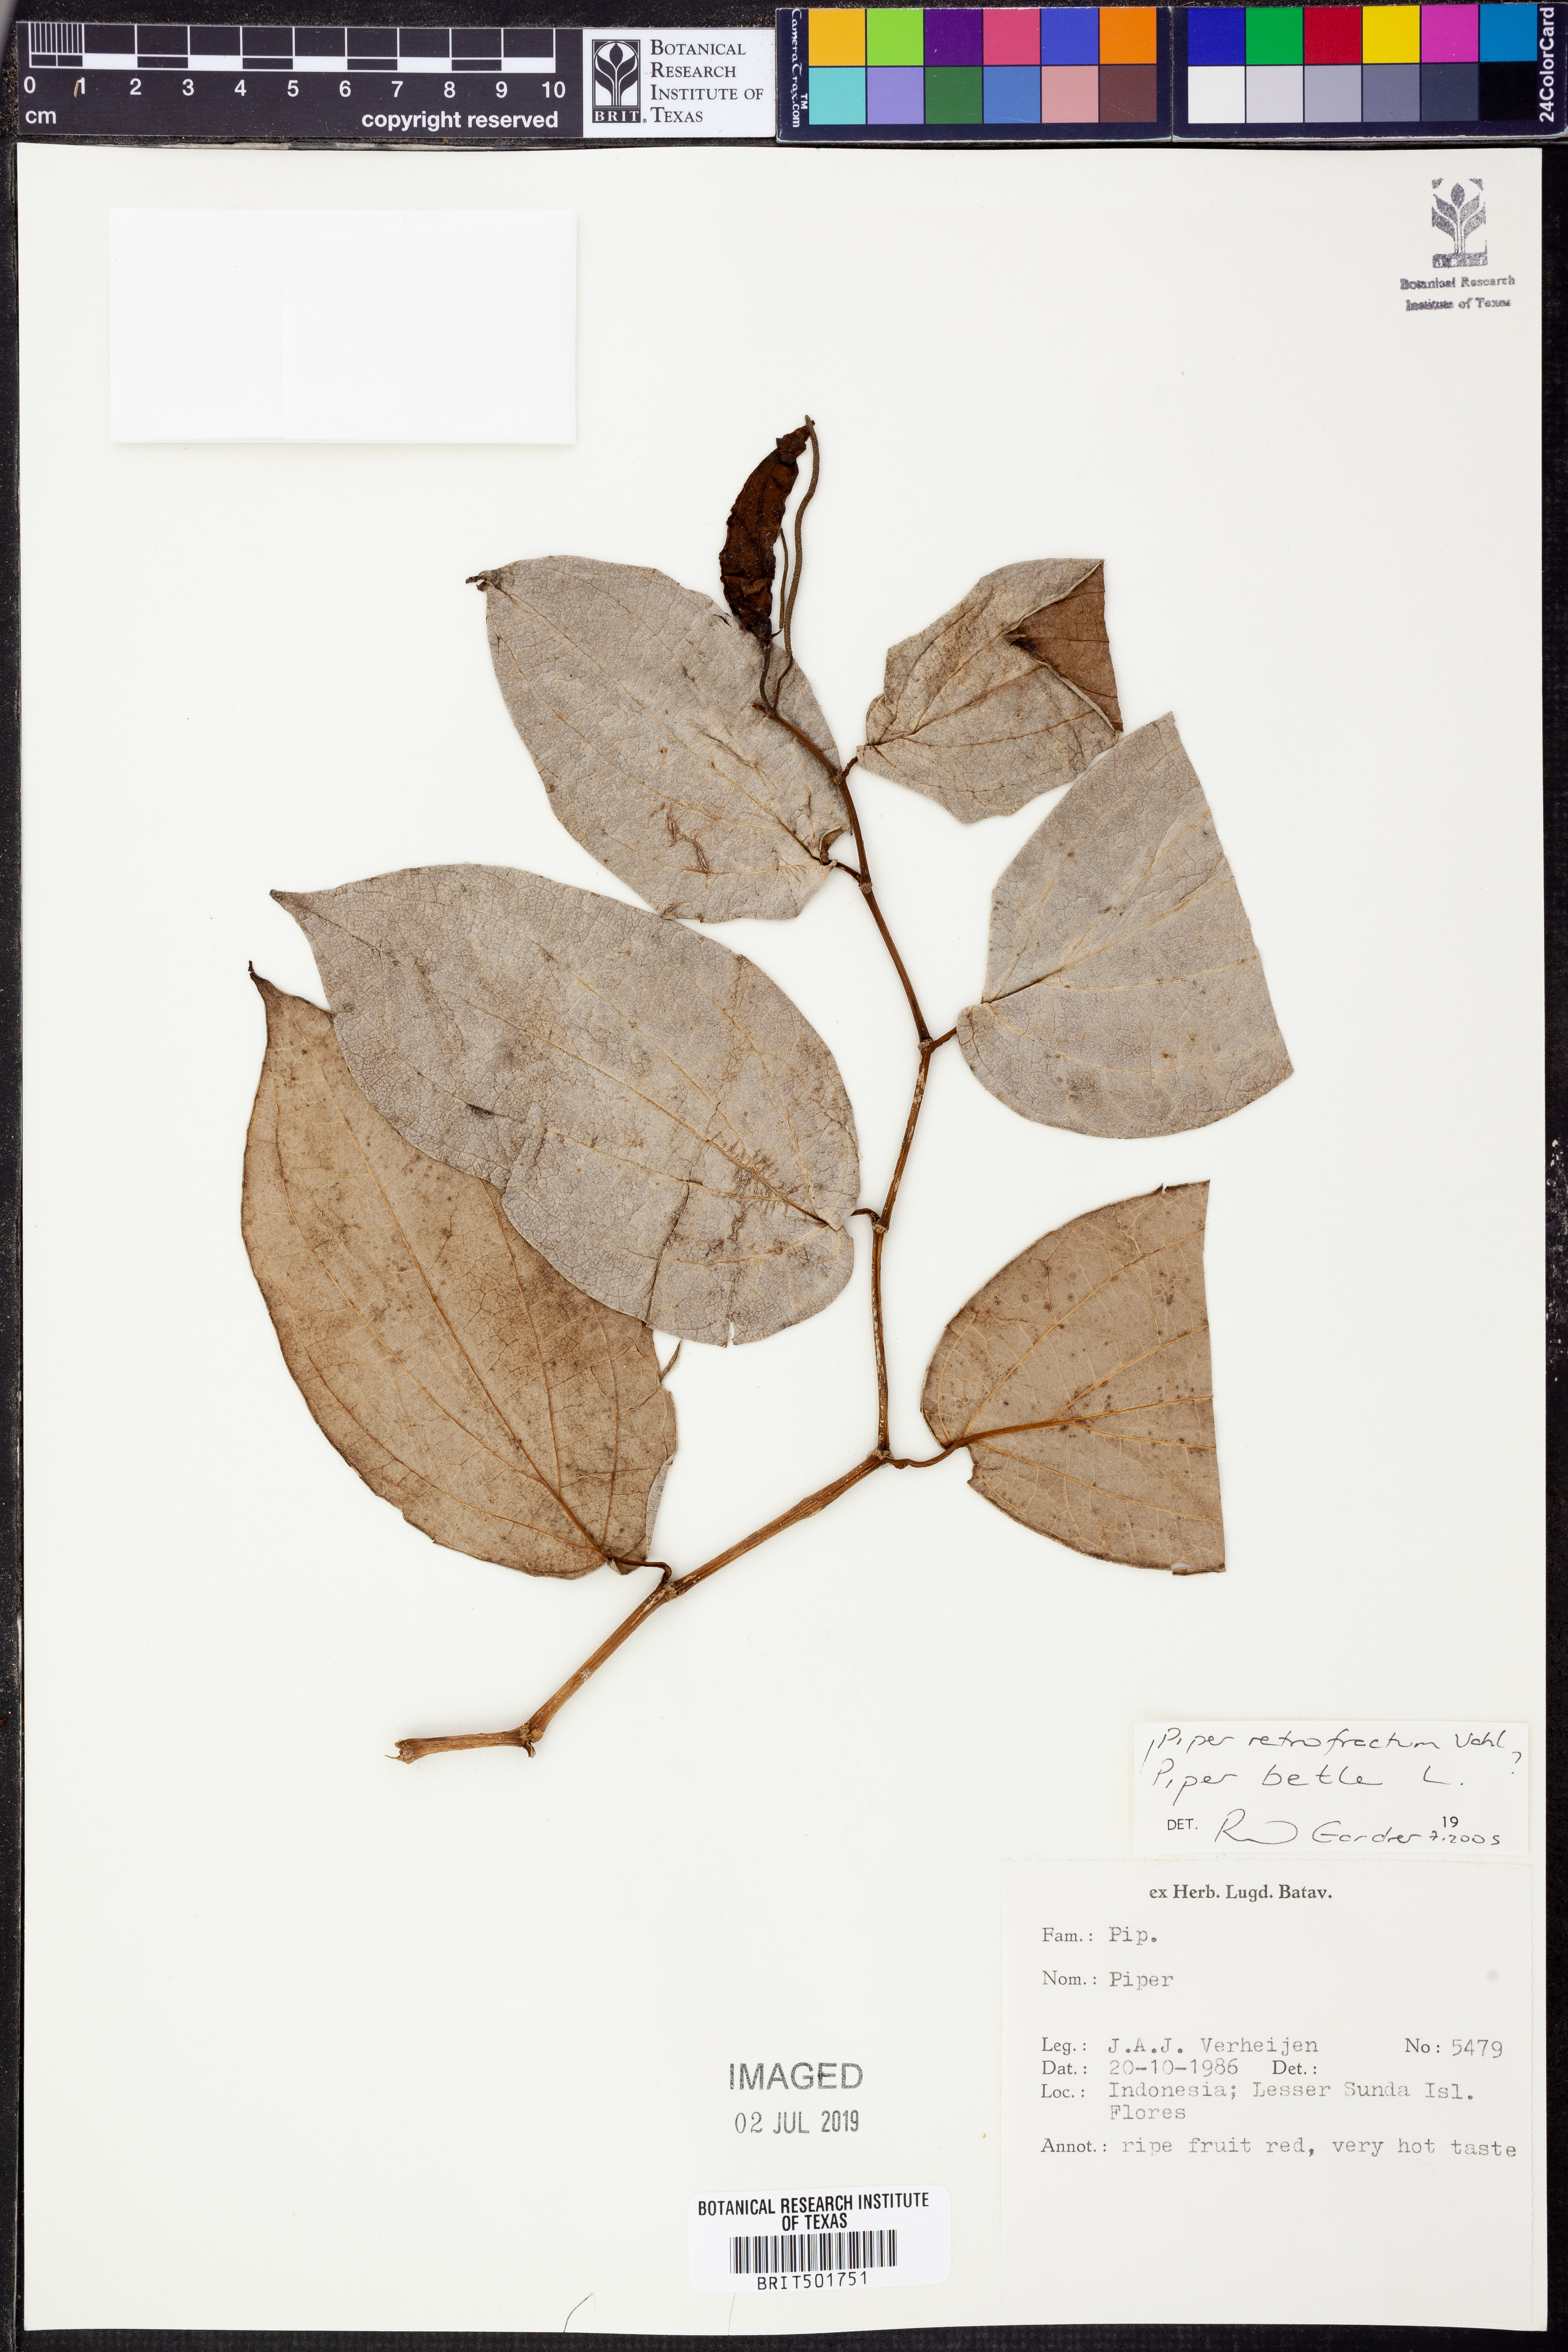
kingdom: Plantae
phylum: Tracheophyta
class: Magnoliopsida
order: Piperales
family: Piperaceae
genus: Piper
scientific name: Piper retrofractum
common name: Javanese long pepper
